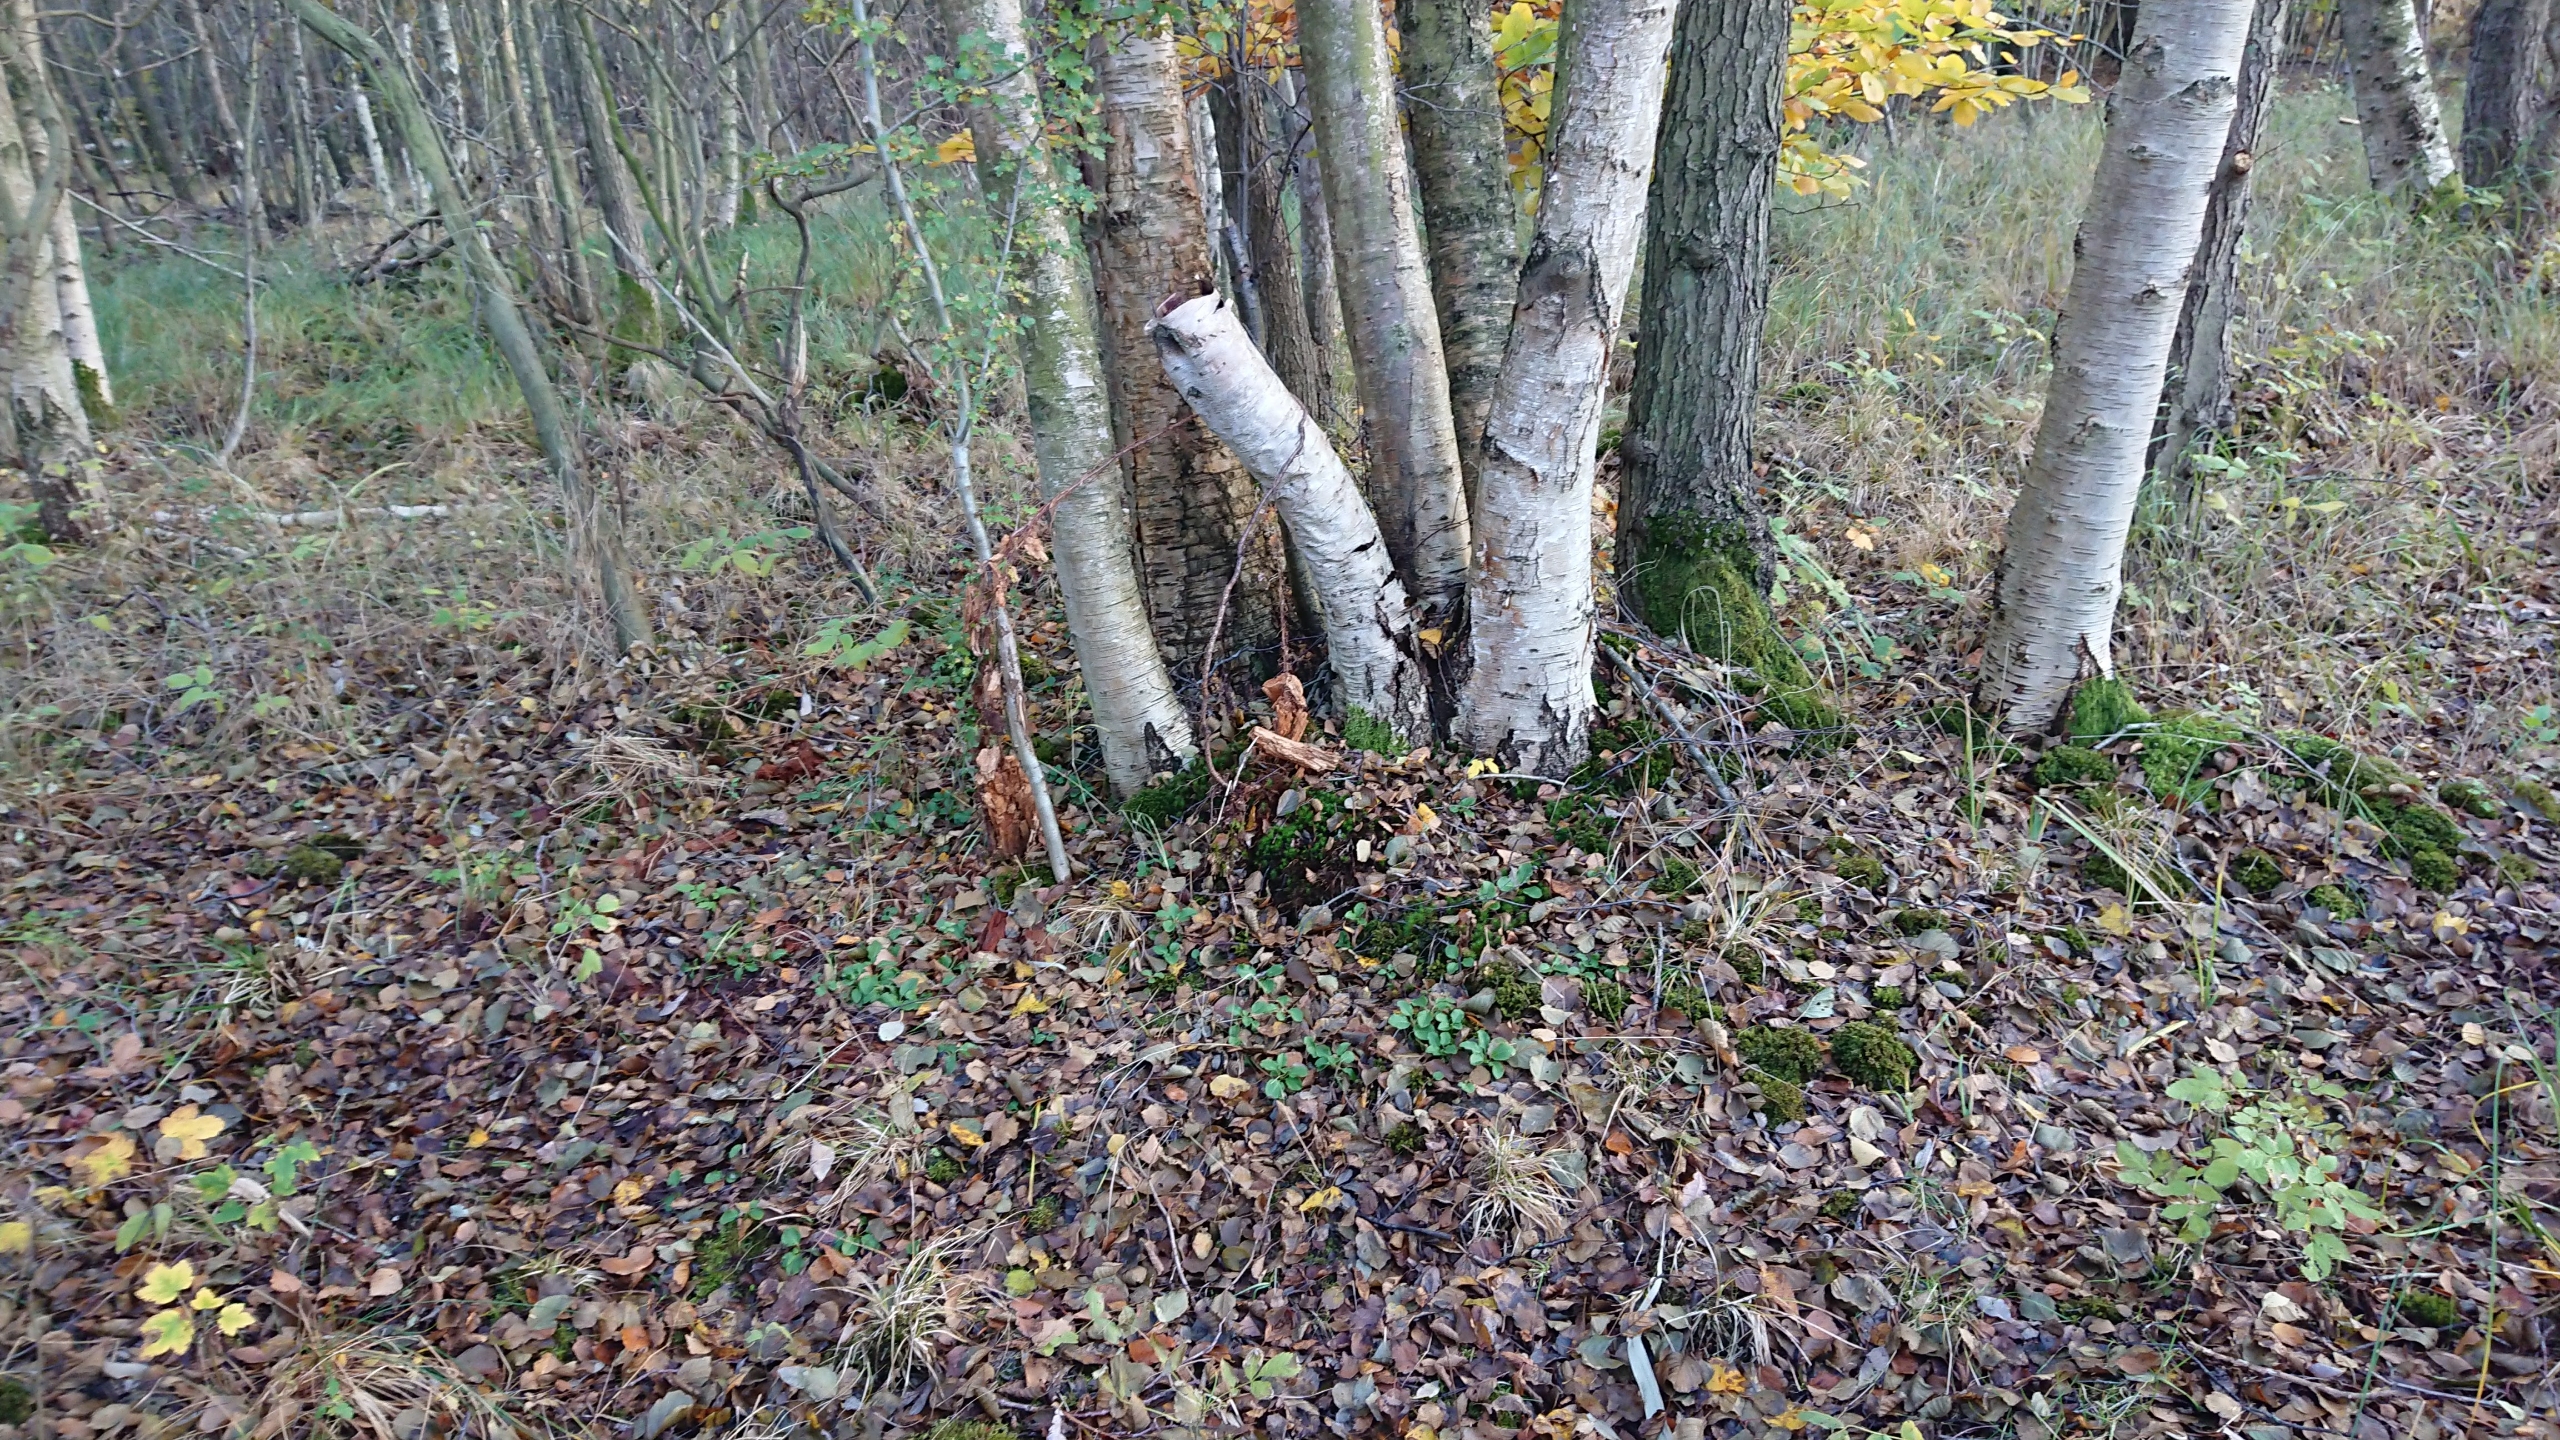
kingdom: Plantae
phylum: Tracheophyta
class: Magnoliopsida
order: Ericales
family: Ericaceae
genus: Pyrola
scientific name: Pyrola minor
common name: Liden vintergrøn
